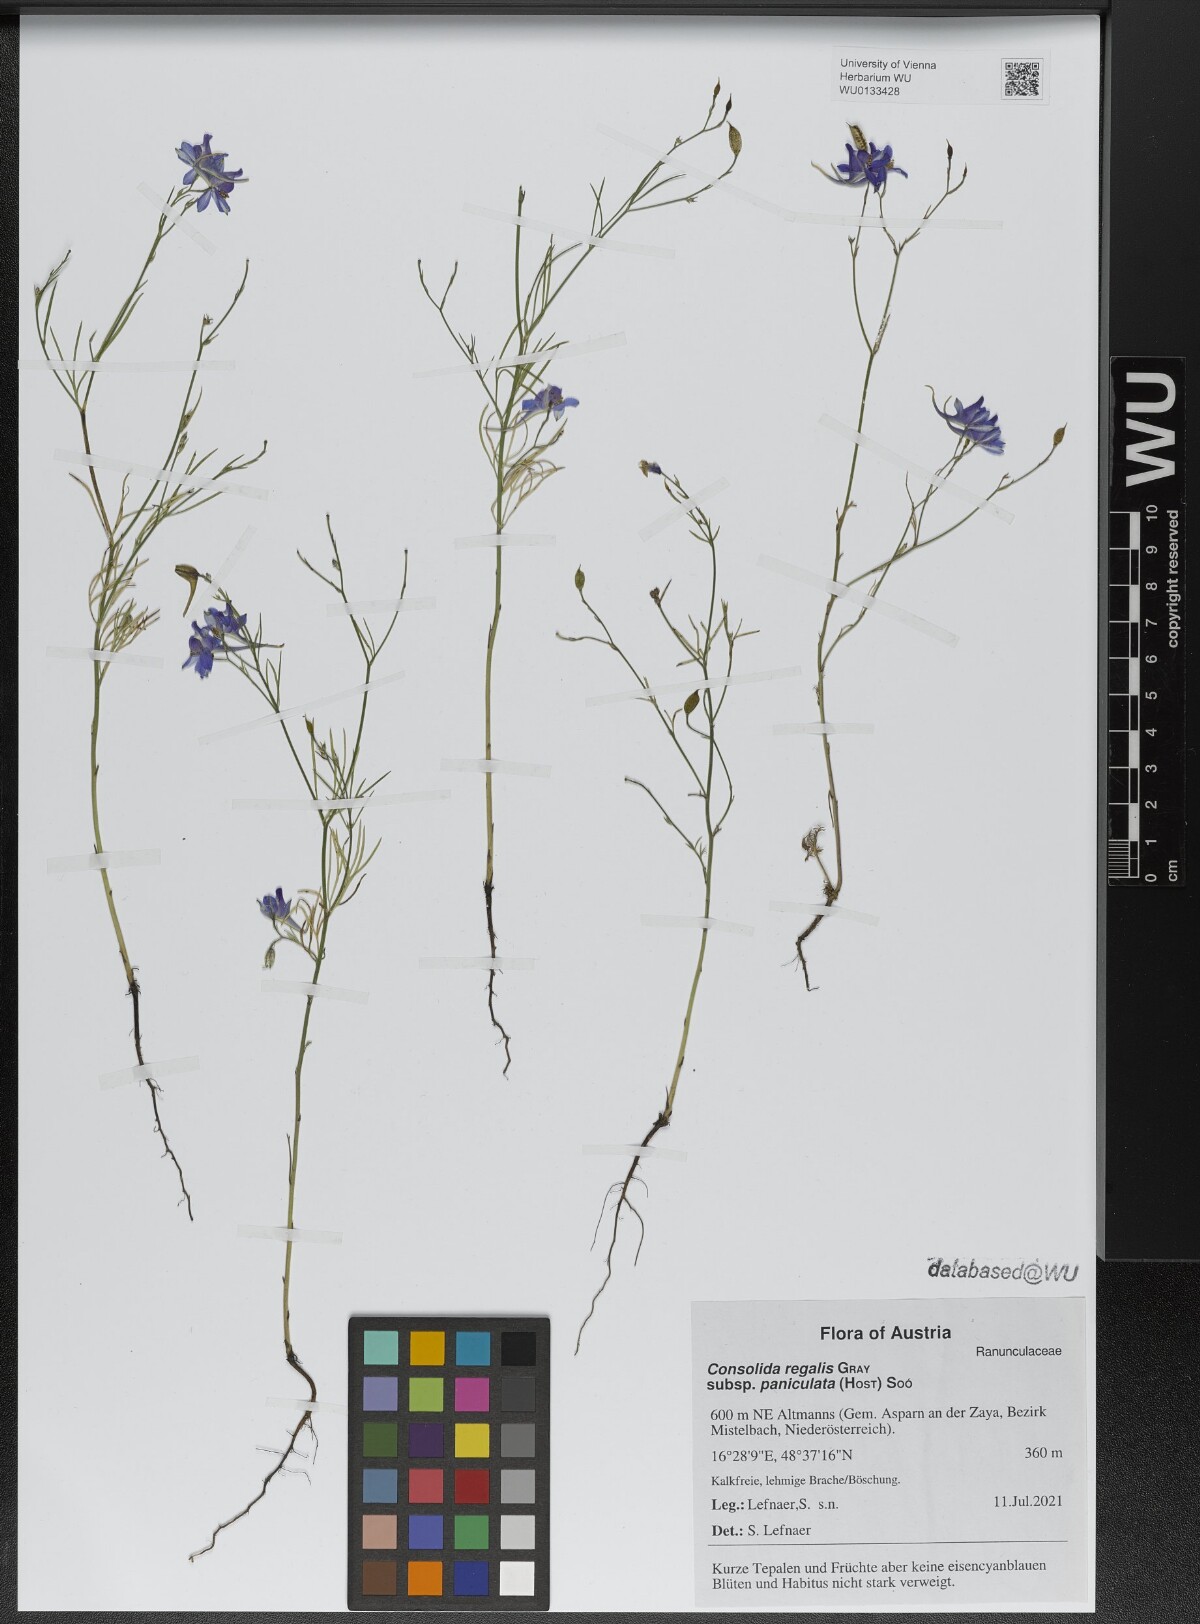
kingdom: Plantae
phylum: Tracheophyta
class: Magnoliopsida
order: Ranunculales
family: Ranunculaceae
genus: Delphinium
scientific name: Delphinium consolida
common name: Branching larkspur
